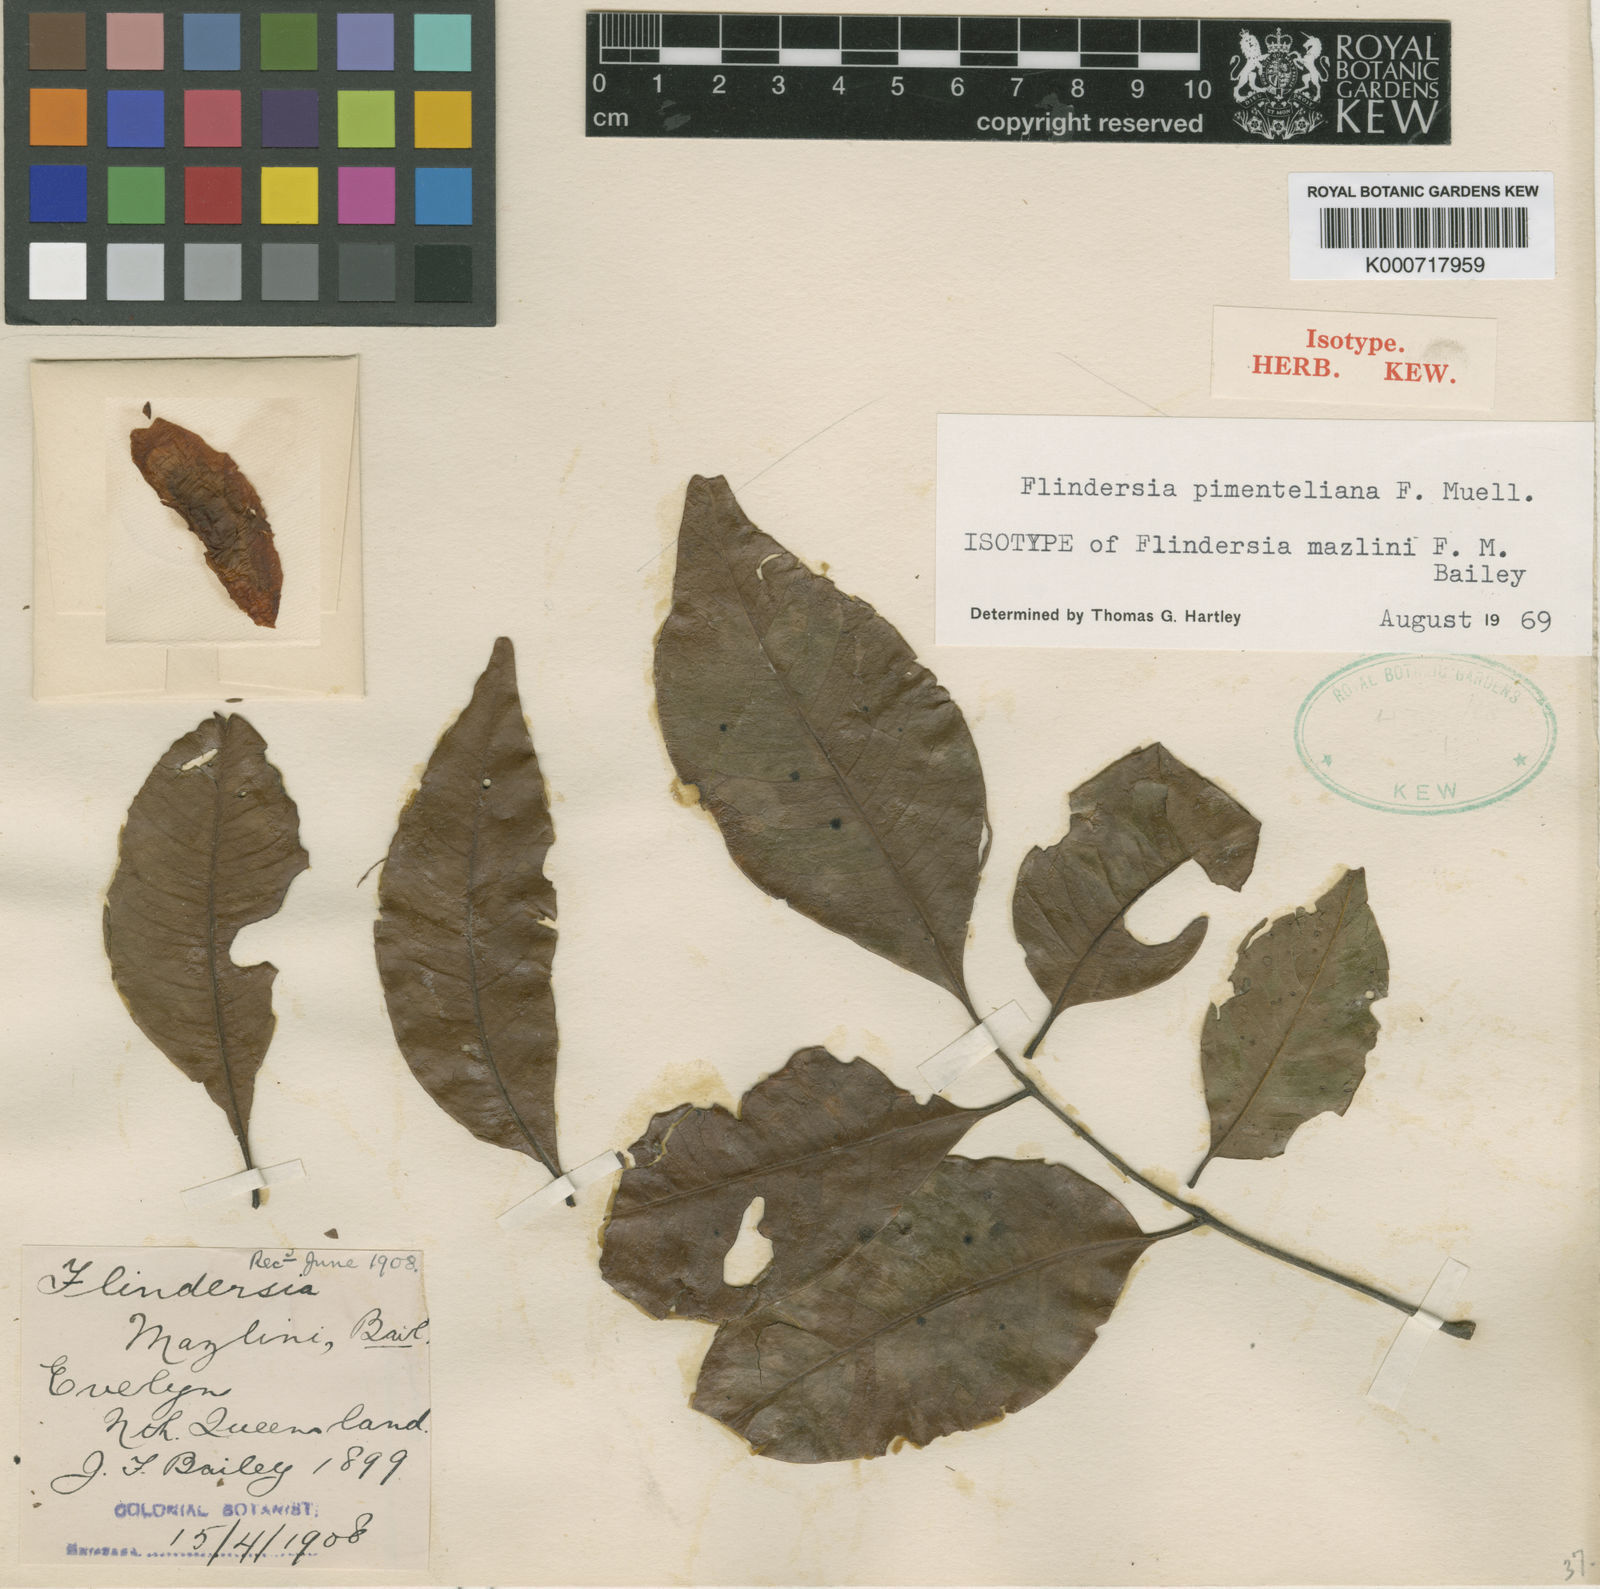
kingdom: Plantae
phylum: Tracheophyta
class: Magnoliopsida
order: Sapindales
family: Rutaceae
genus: Flindersia
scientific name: Flindersia pimenteliana
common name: Queensland-maple
